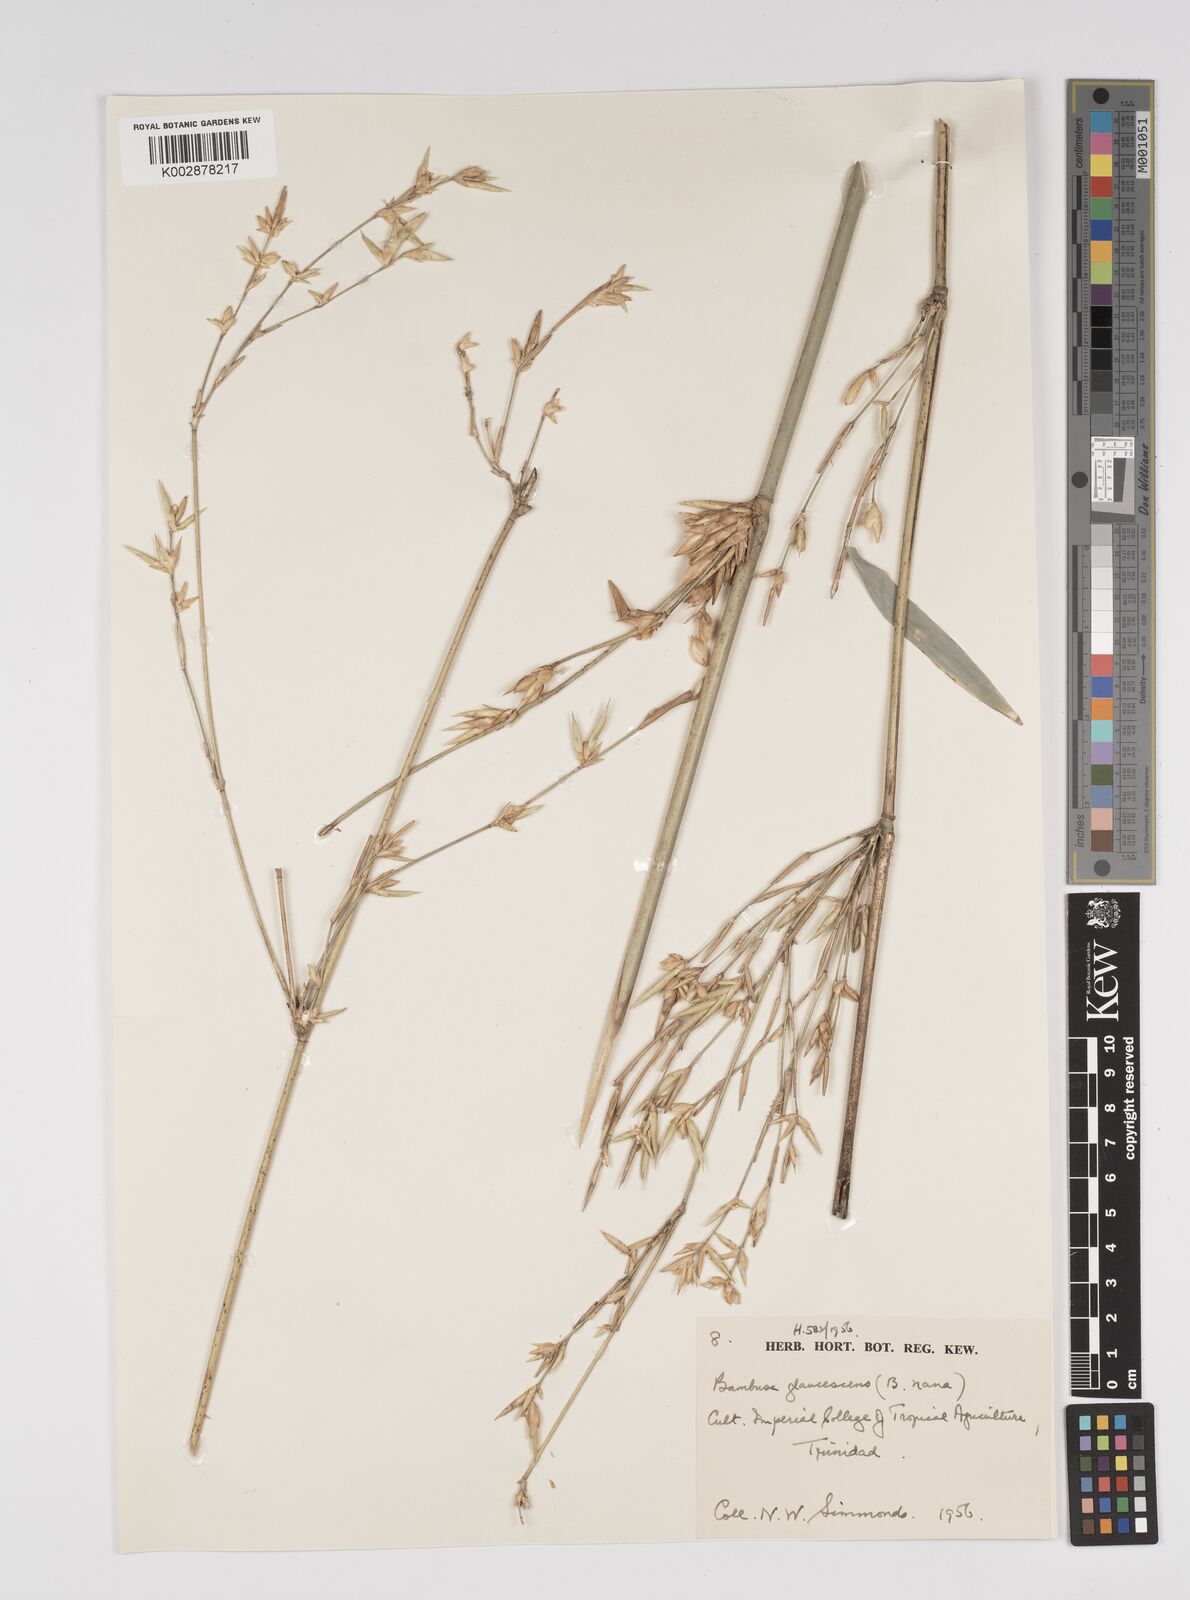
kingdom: Plantae
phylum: Tracheophyta
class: Liliopsida
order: Poales
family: Poaceae
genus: Bambusa
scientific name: Bambusa multiplex
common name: Hedge bamboo
